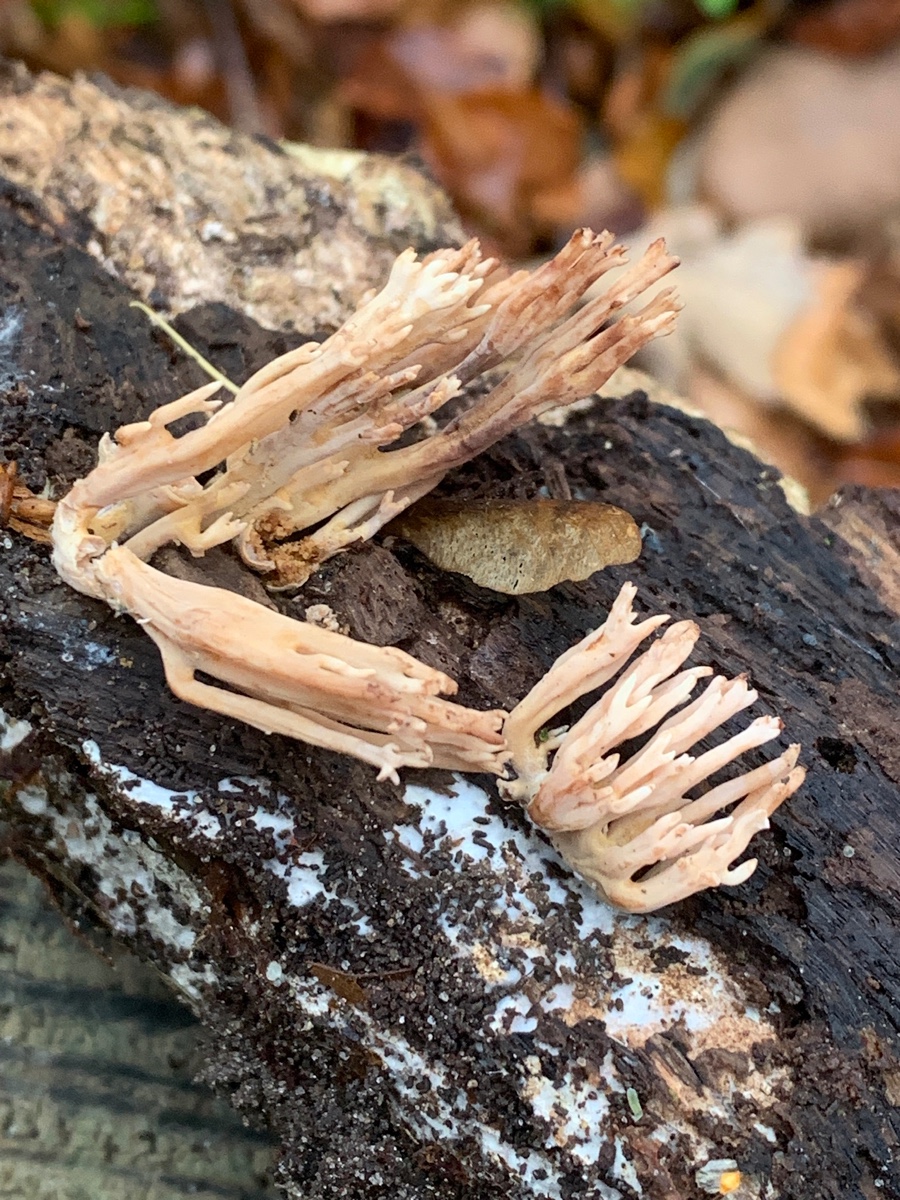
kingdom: Fungi
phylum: Basidiomycota
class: Agaricomycetes
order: Gomphales
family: Gomphaceae
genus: Ramaria
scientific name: Ramaria stricta
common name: rank koralsvamp
